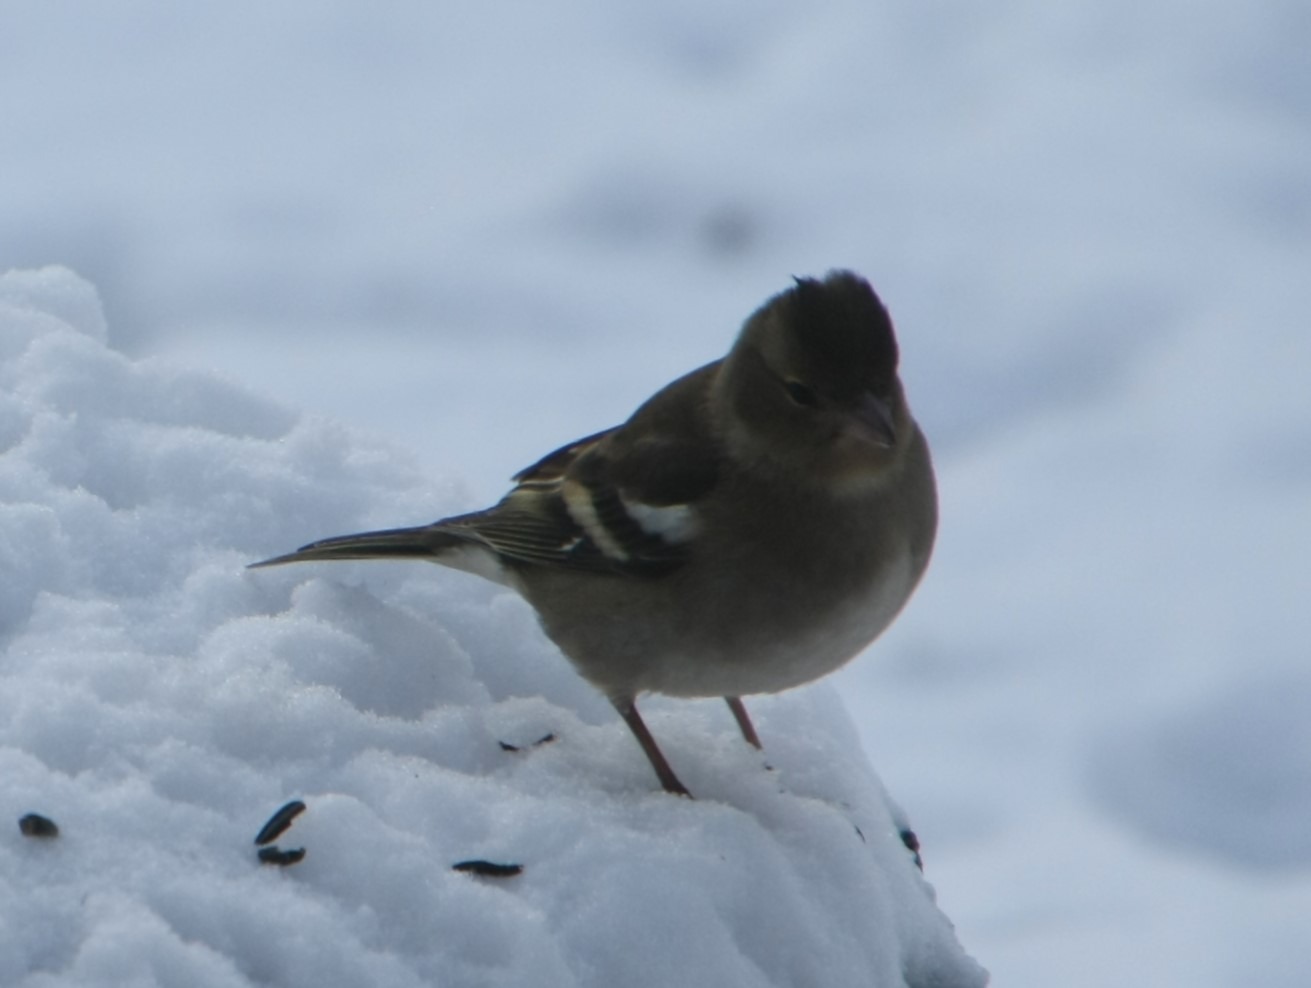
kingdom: Animalia
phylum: Chordata
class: Aves
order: Passeriformes
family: Fringillidae
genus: Fringilla
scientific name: Fringilla coelebs
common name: Bogfinke
